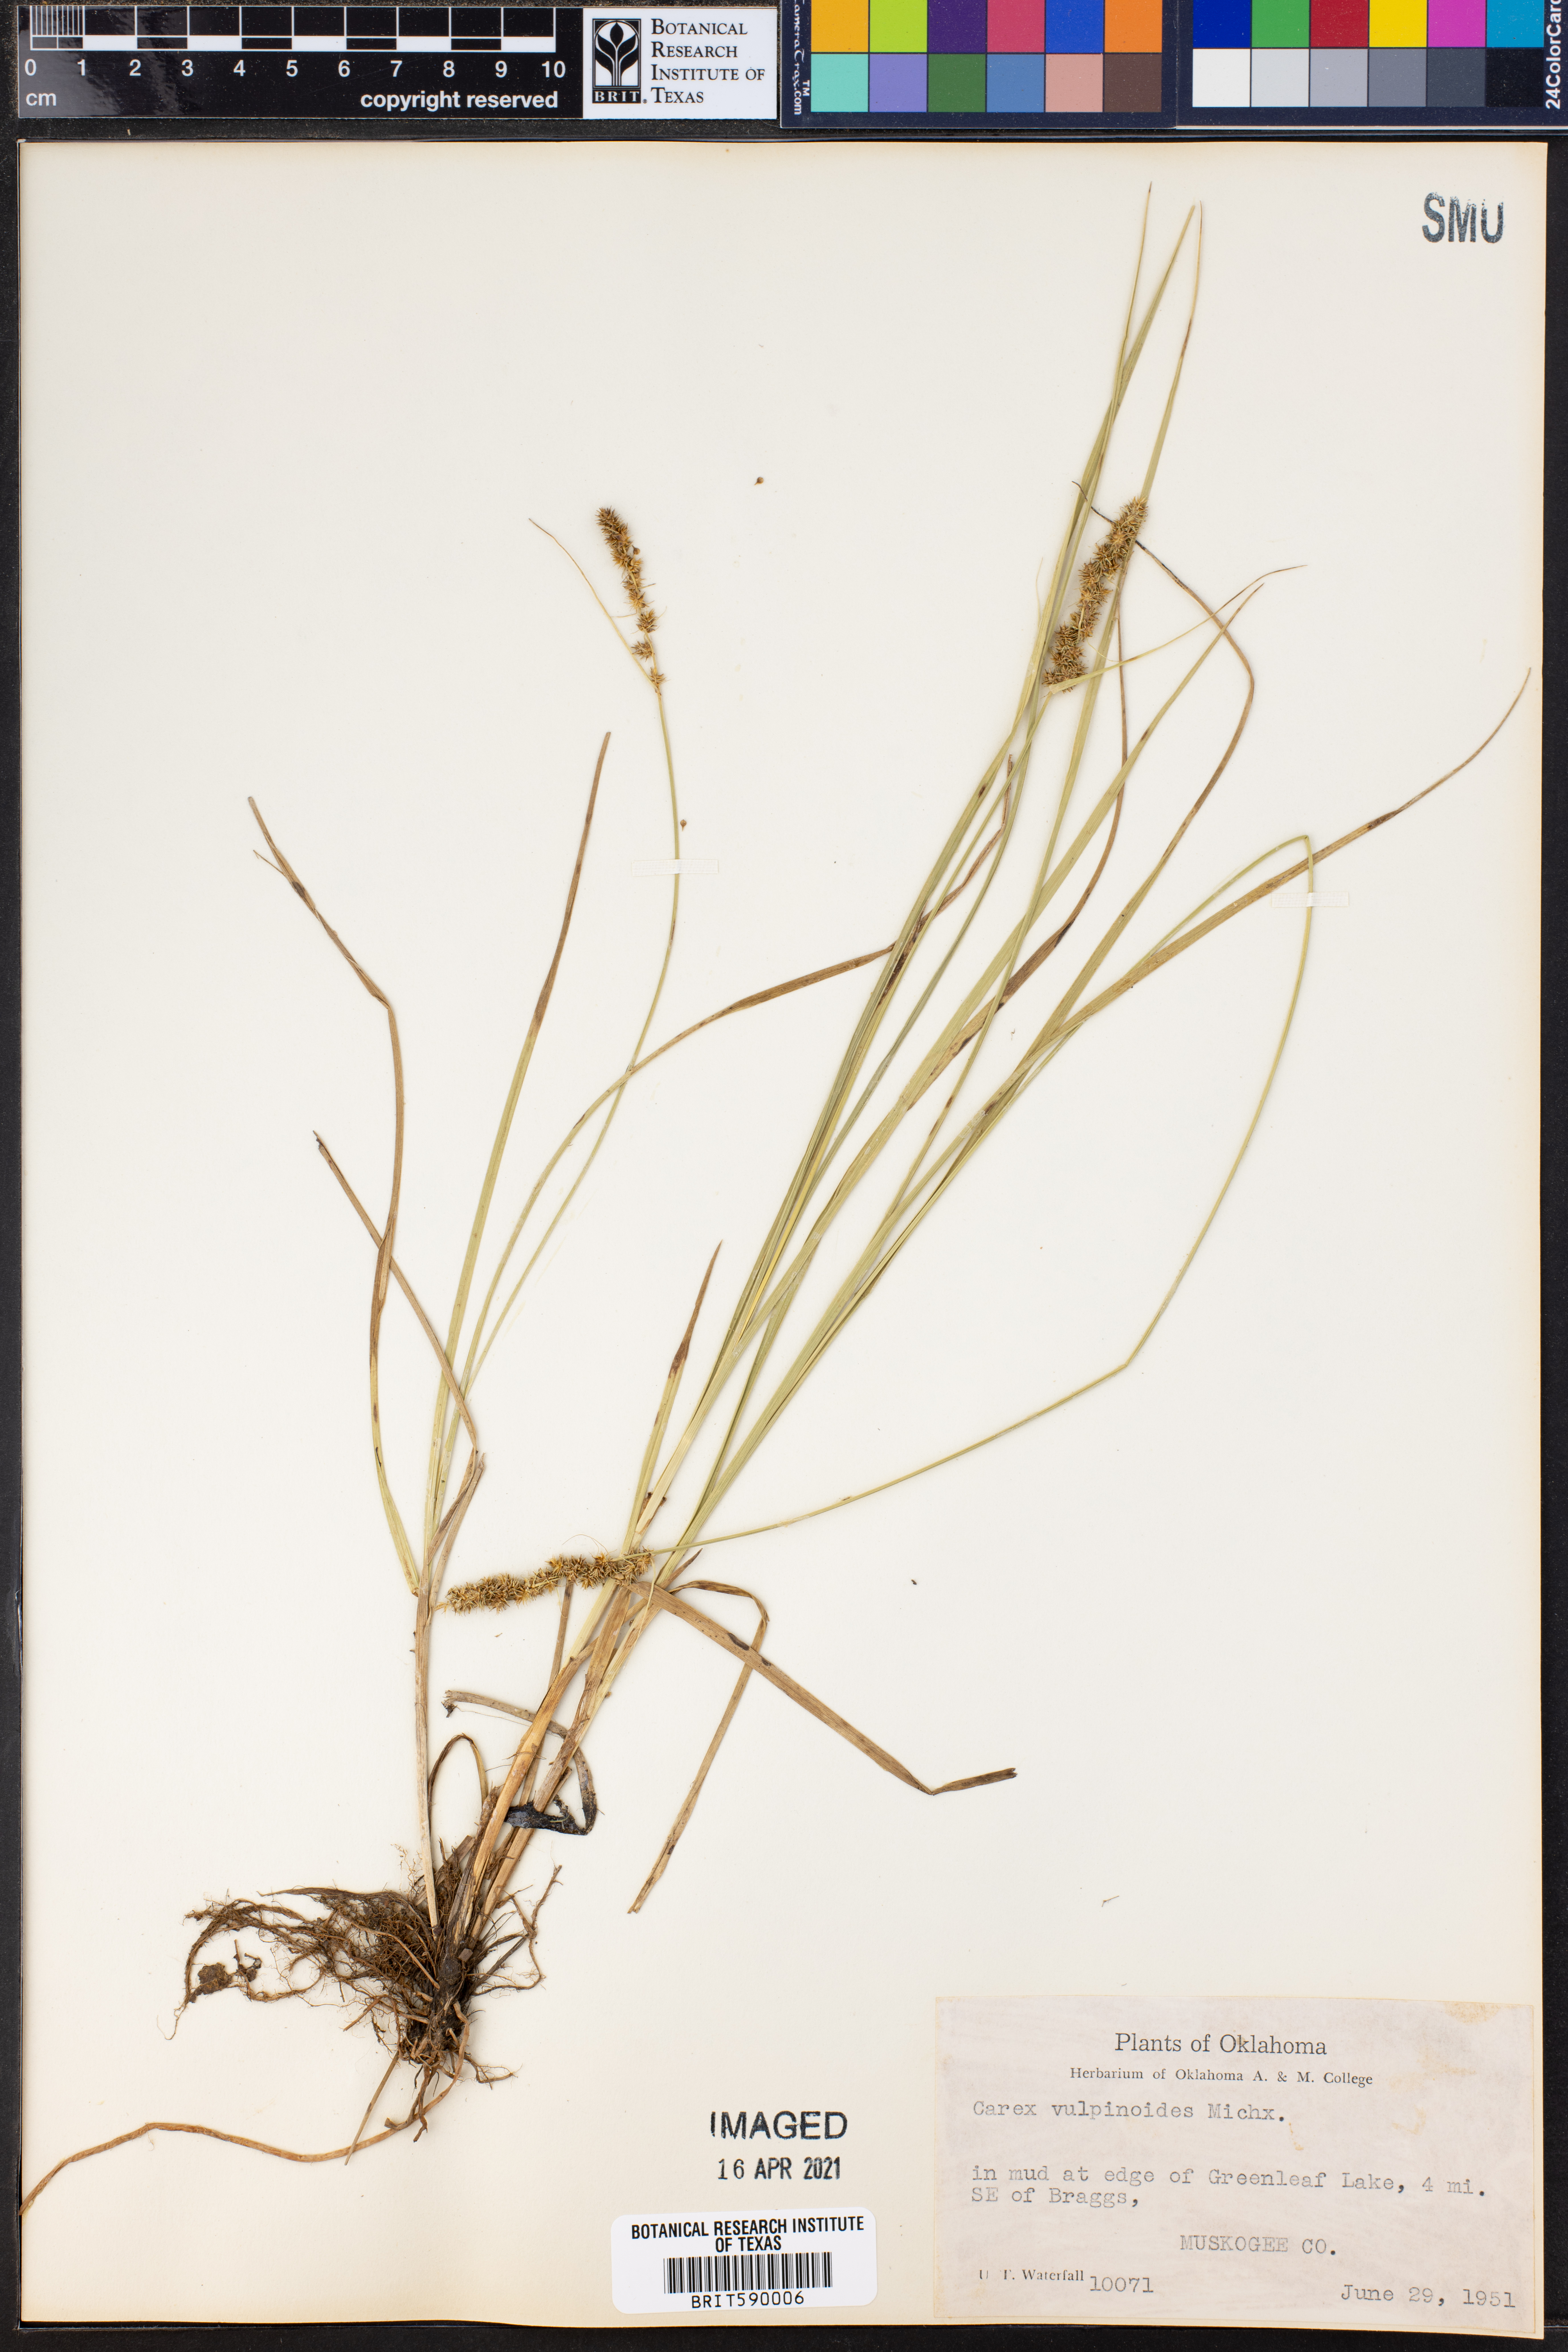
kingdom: Plantae
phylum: Tracheophyta
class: Liliopsida
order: Poales
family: Cyperaceae
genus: Carex
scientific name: Carex vulpinoidea
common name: American fox-sedge
